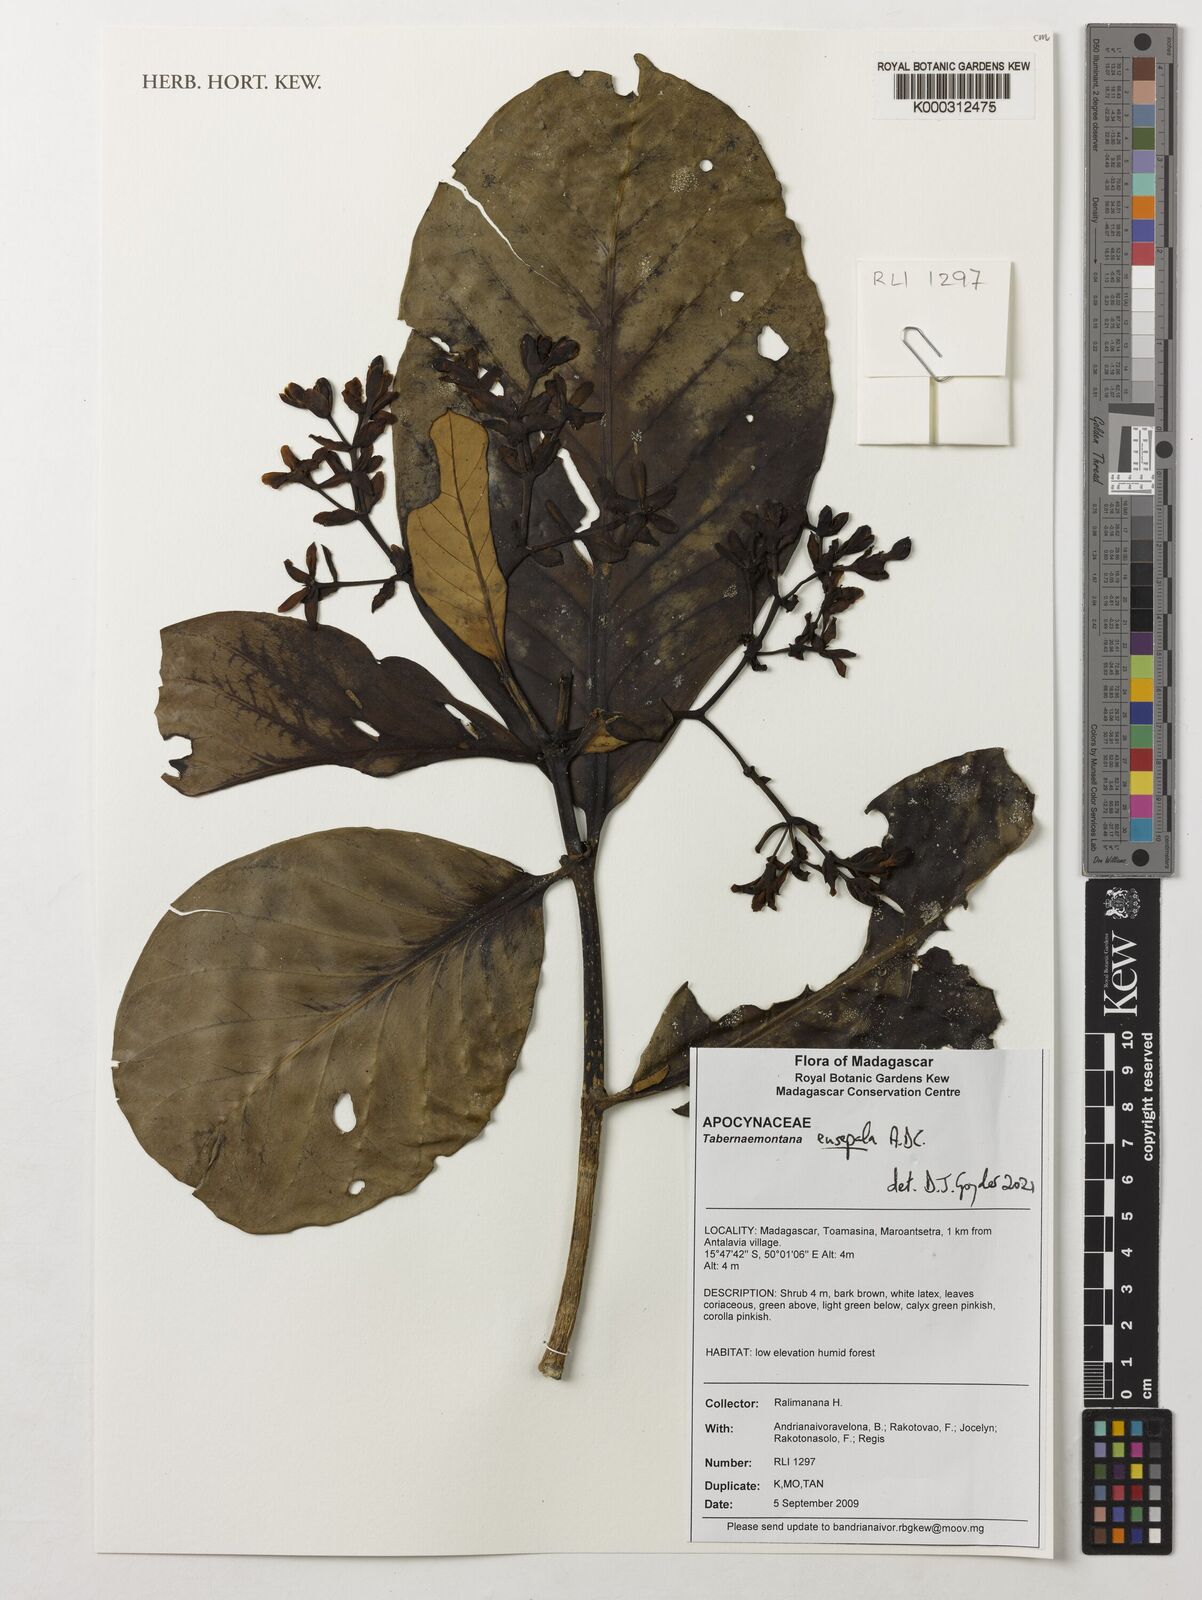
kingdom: Plantae
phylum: Tracheophyta
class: Magnoliopsida
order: Gentianales
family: Apocynaceae
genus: Tabernaemontana
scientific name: Tabernaemontana eusepala
